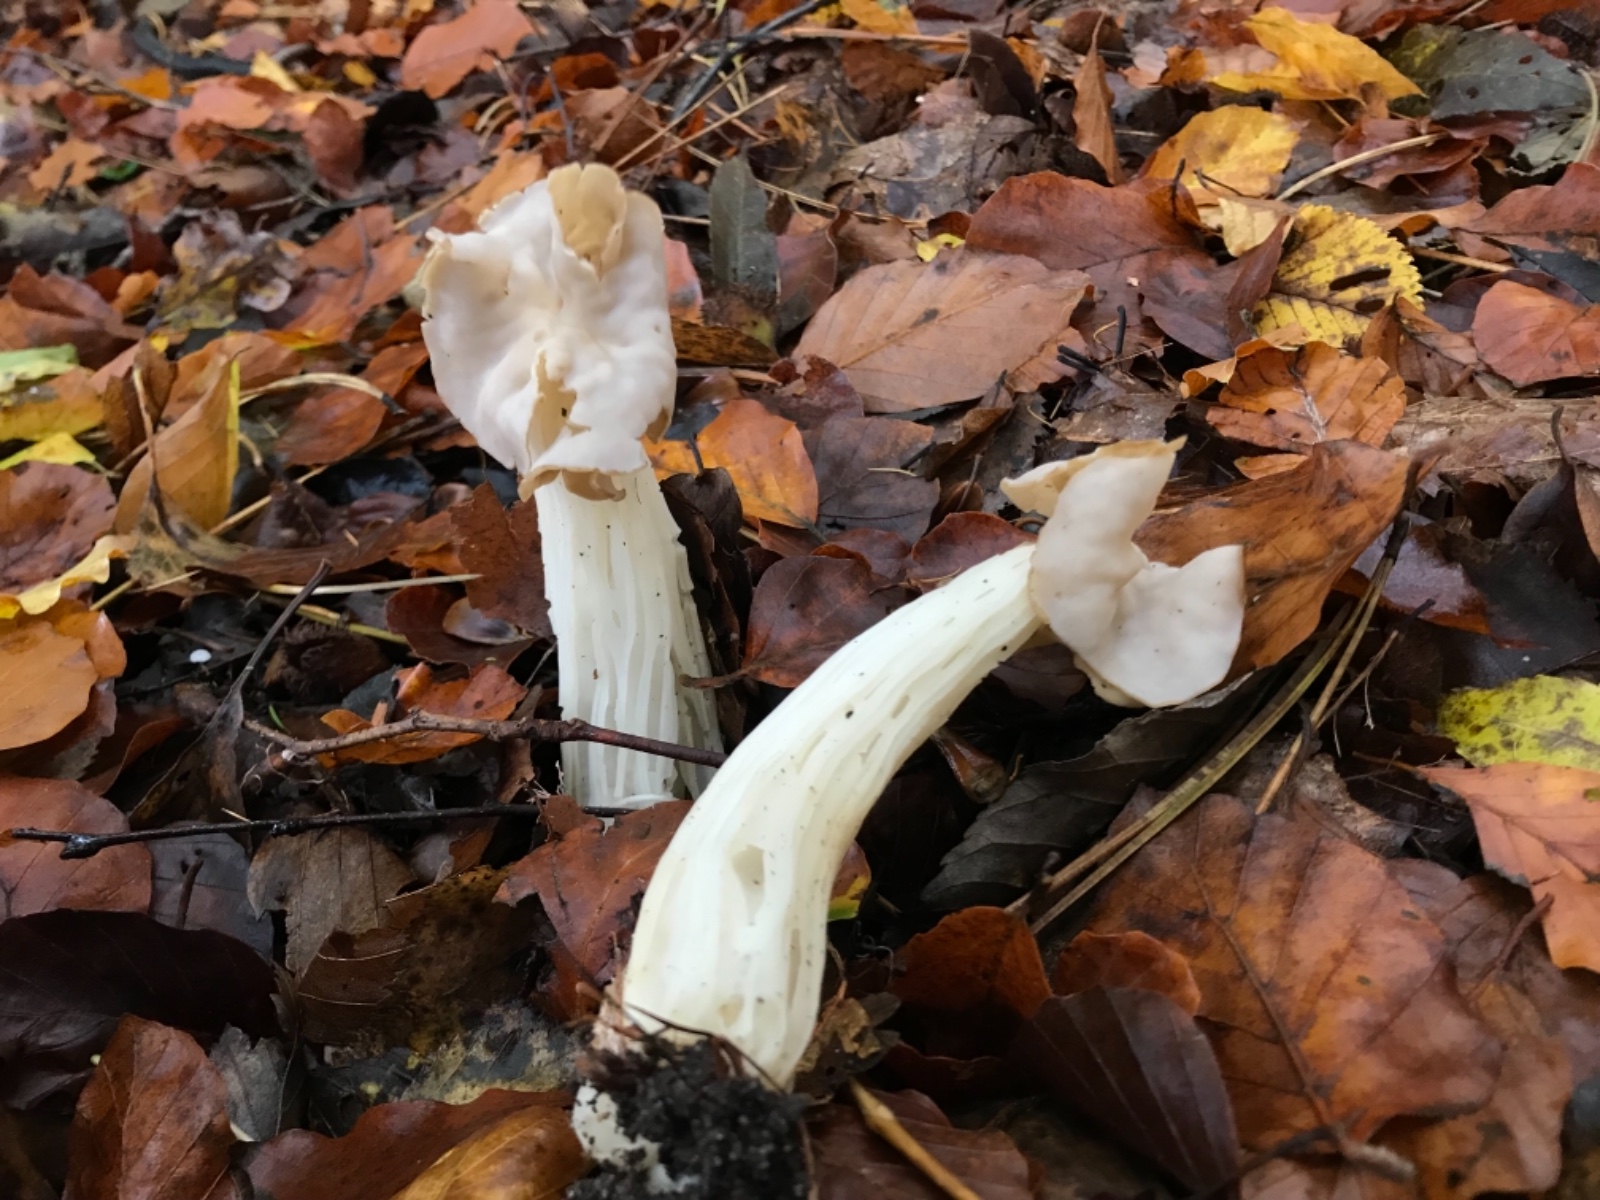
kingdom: Fungi
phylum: Ascomycota
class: Pezizomycetes
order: Pezizales
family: Helvellaceae
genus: Helvella
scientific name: Helvella crispa
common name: kruset foldhat
